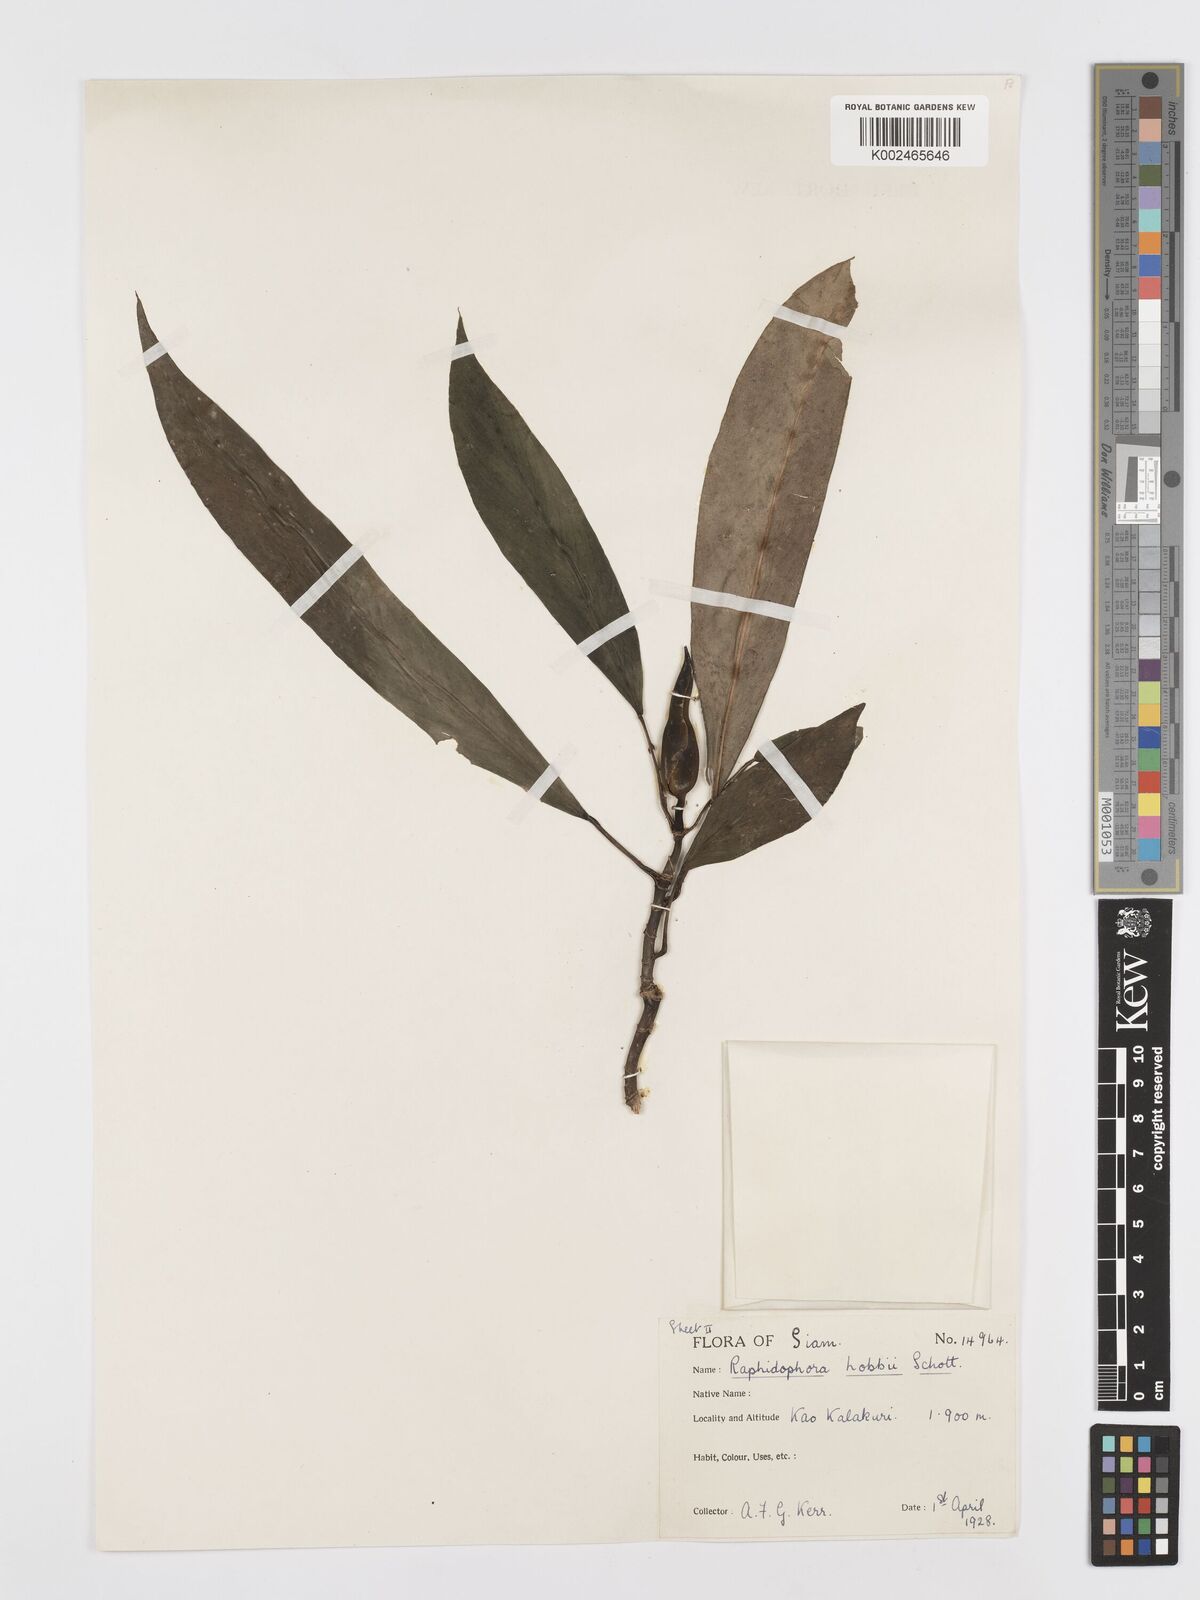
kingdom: Plantae
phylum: Tracheophyta
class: Liliopsida
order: Alismatales
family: Araceae
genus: Rhaphidophora
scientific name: Rhaphidophora sylvestris
